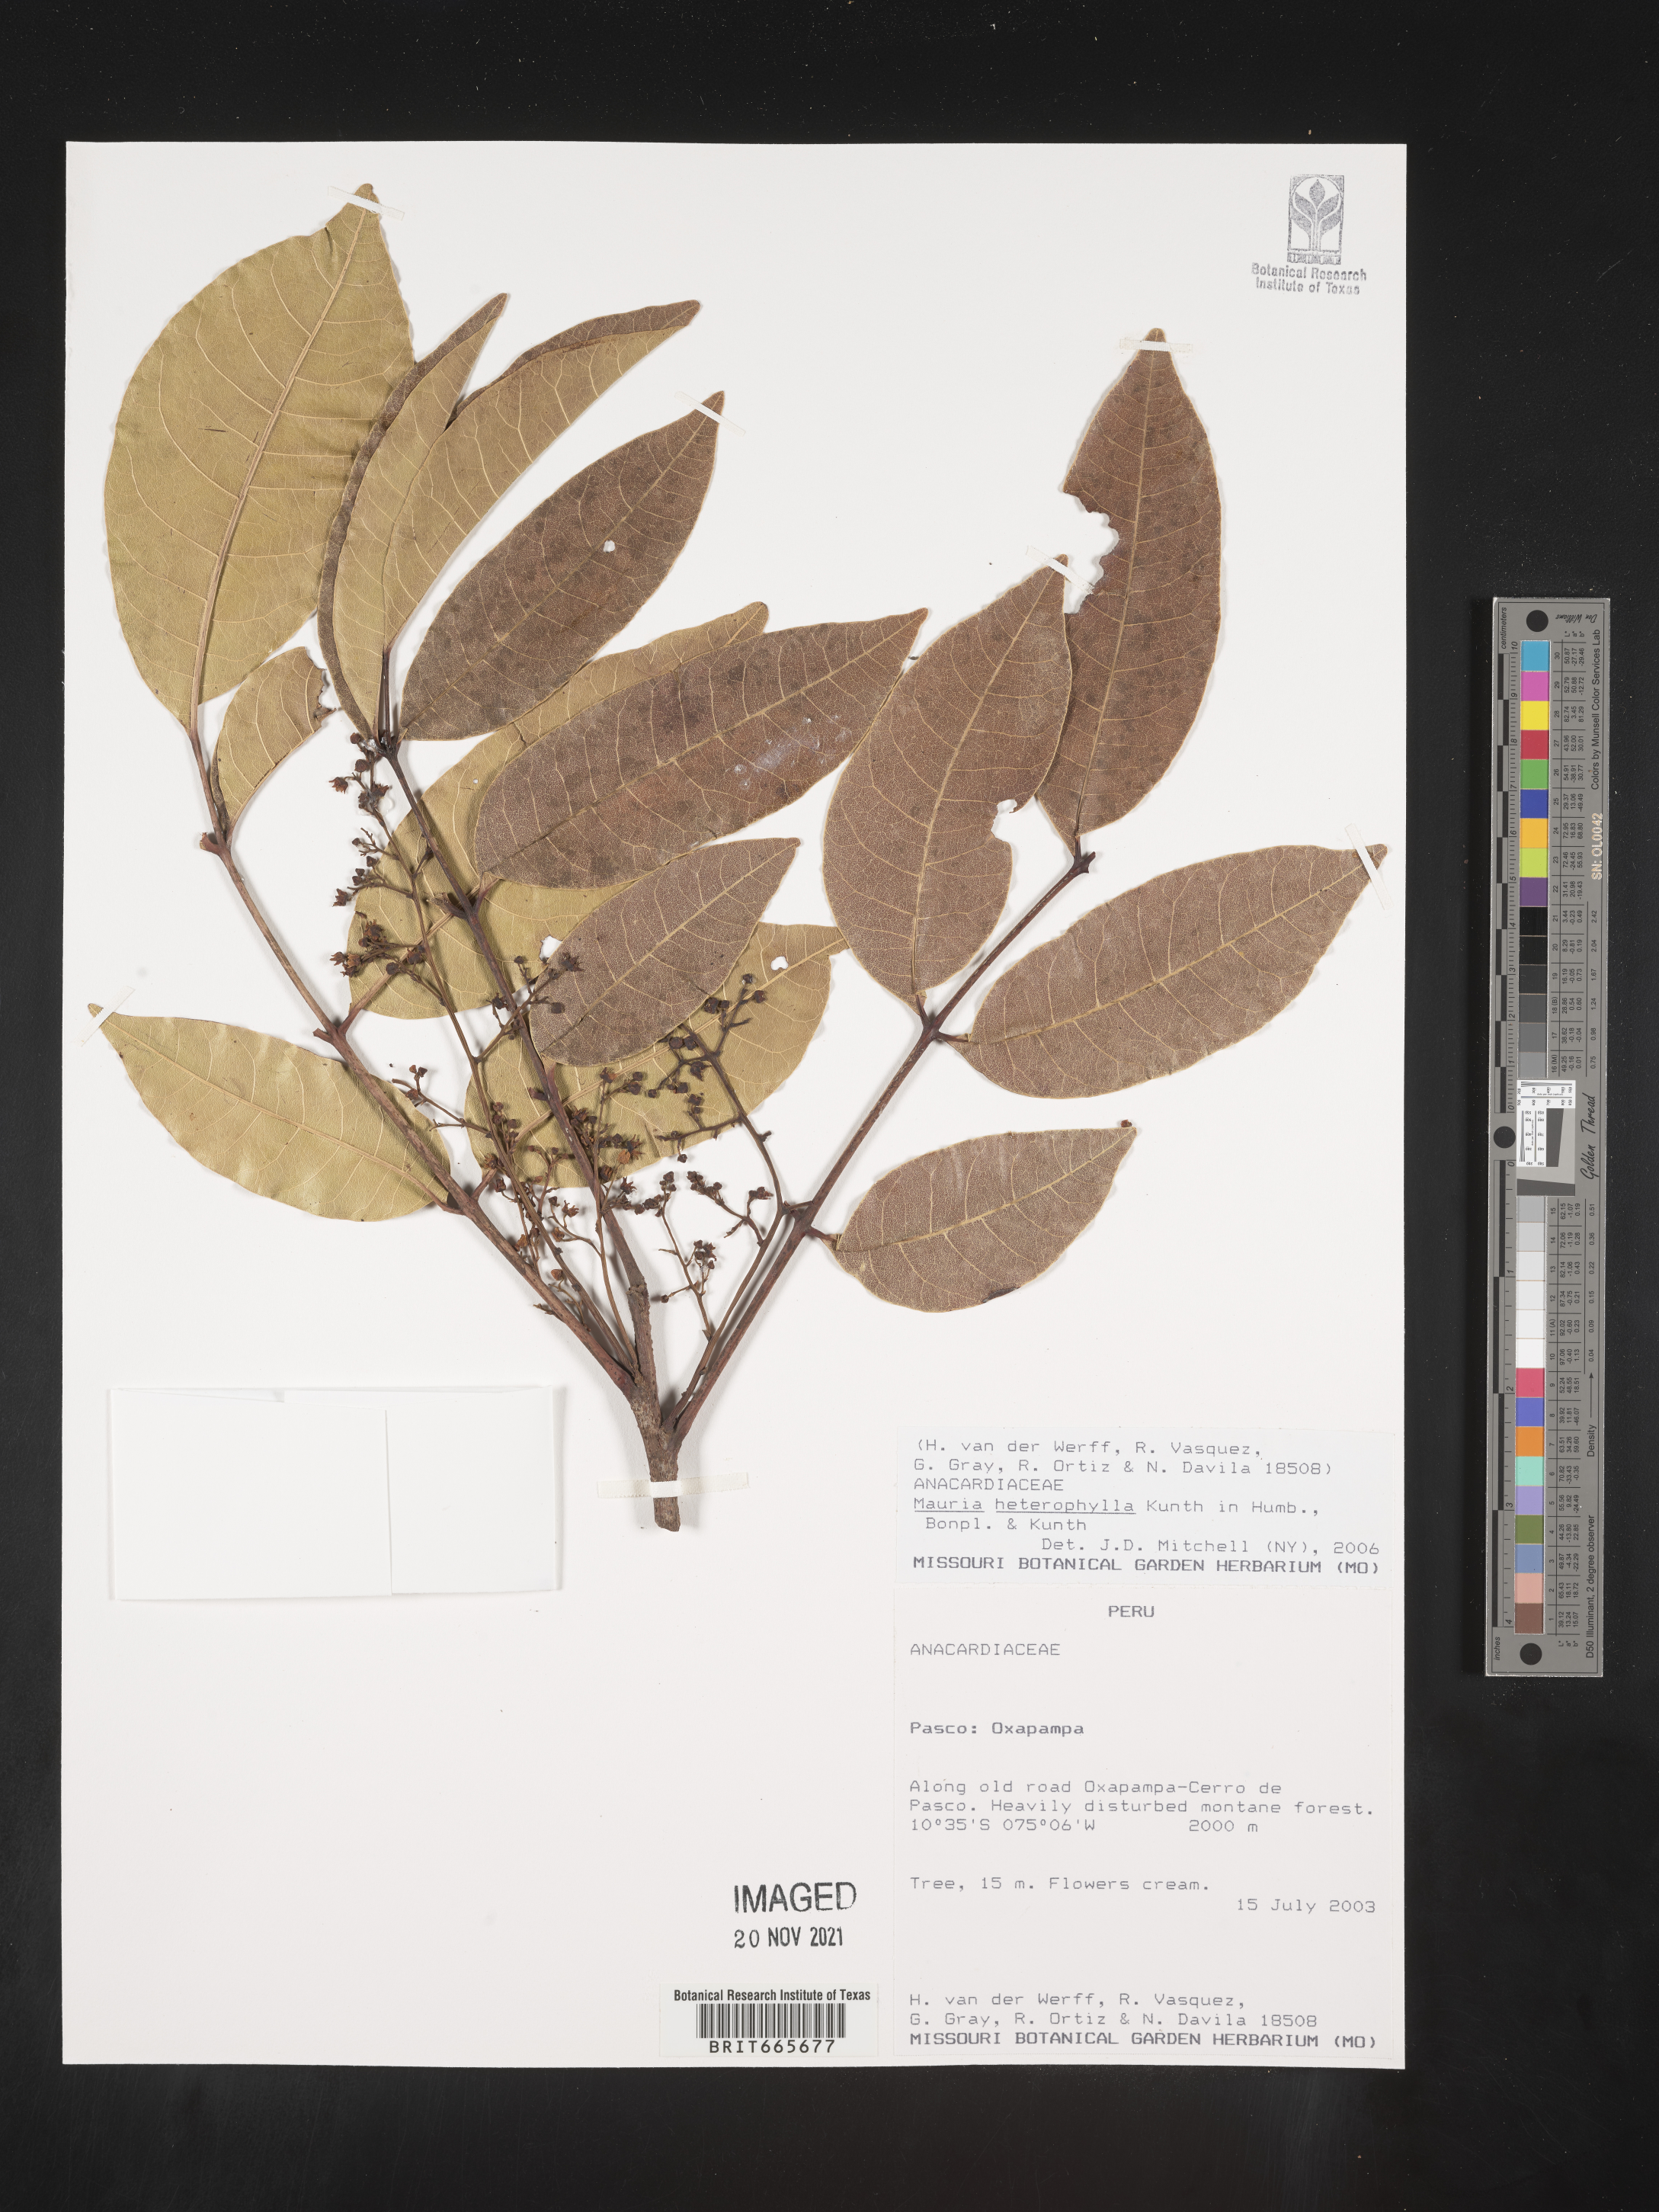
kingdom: Plantae
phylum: Tracheophyta
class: Magnoliopsida
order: Sapindales
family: Anacardiaceae
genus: Mauria
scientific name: Mauria
